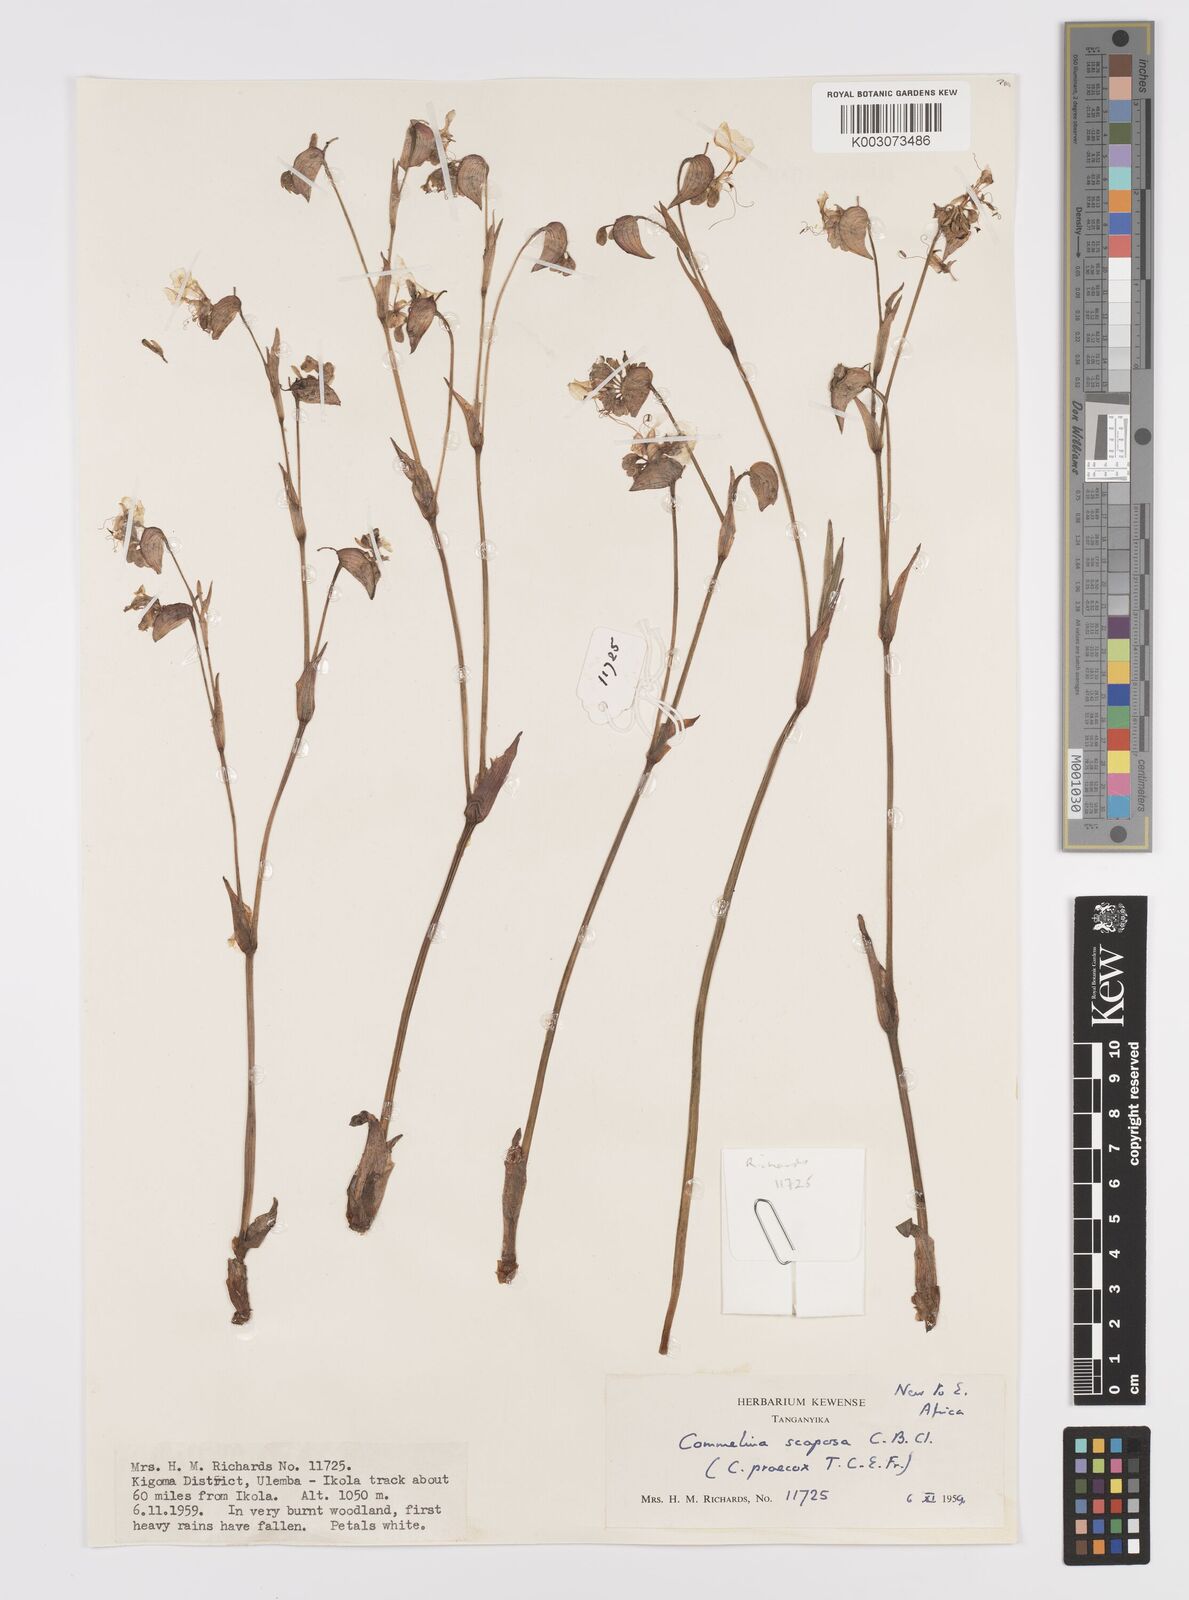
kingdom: Plantae
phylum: Tracheophyta
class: Liliopsida
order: Commelinales
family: Commelinaceae
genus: Commelina
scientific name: Commelina scaposa
